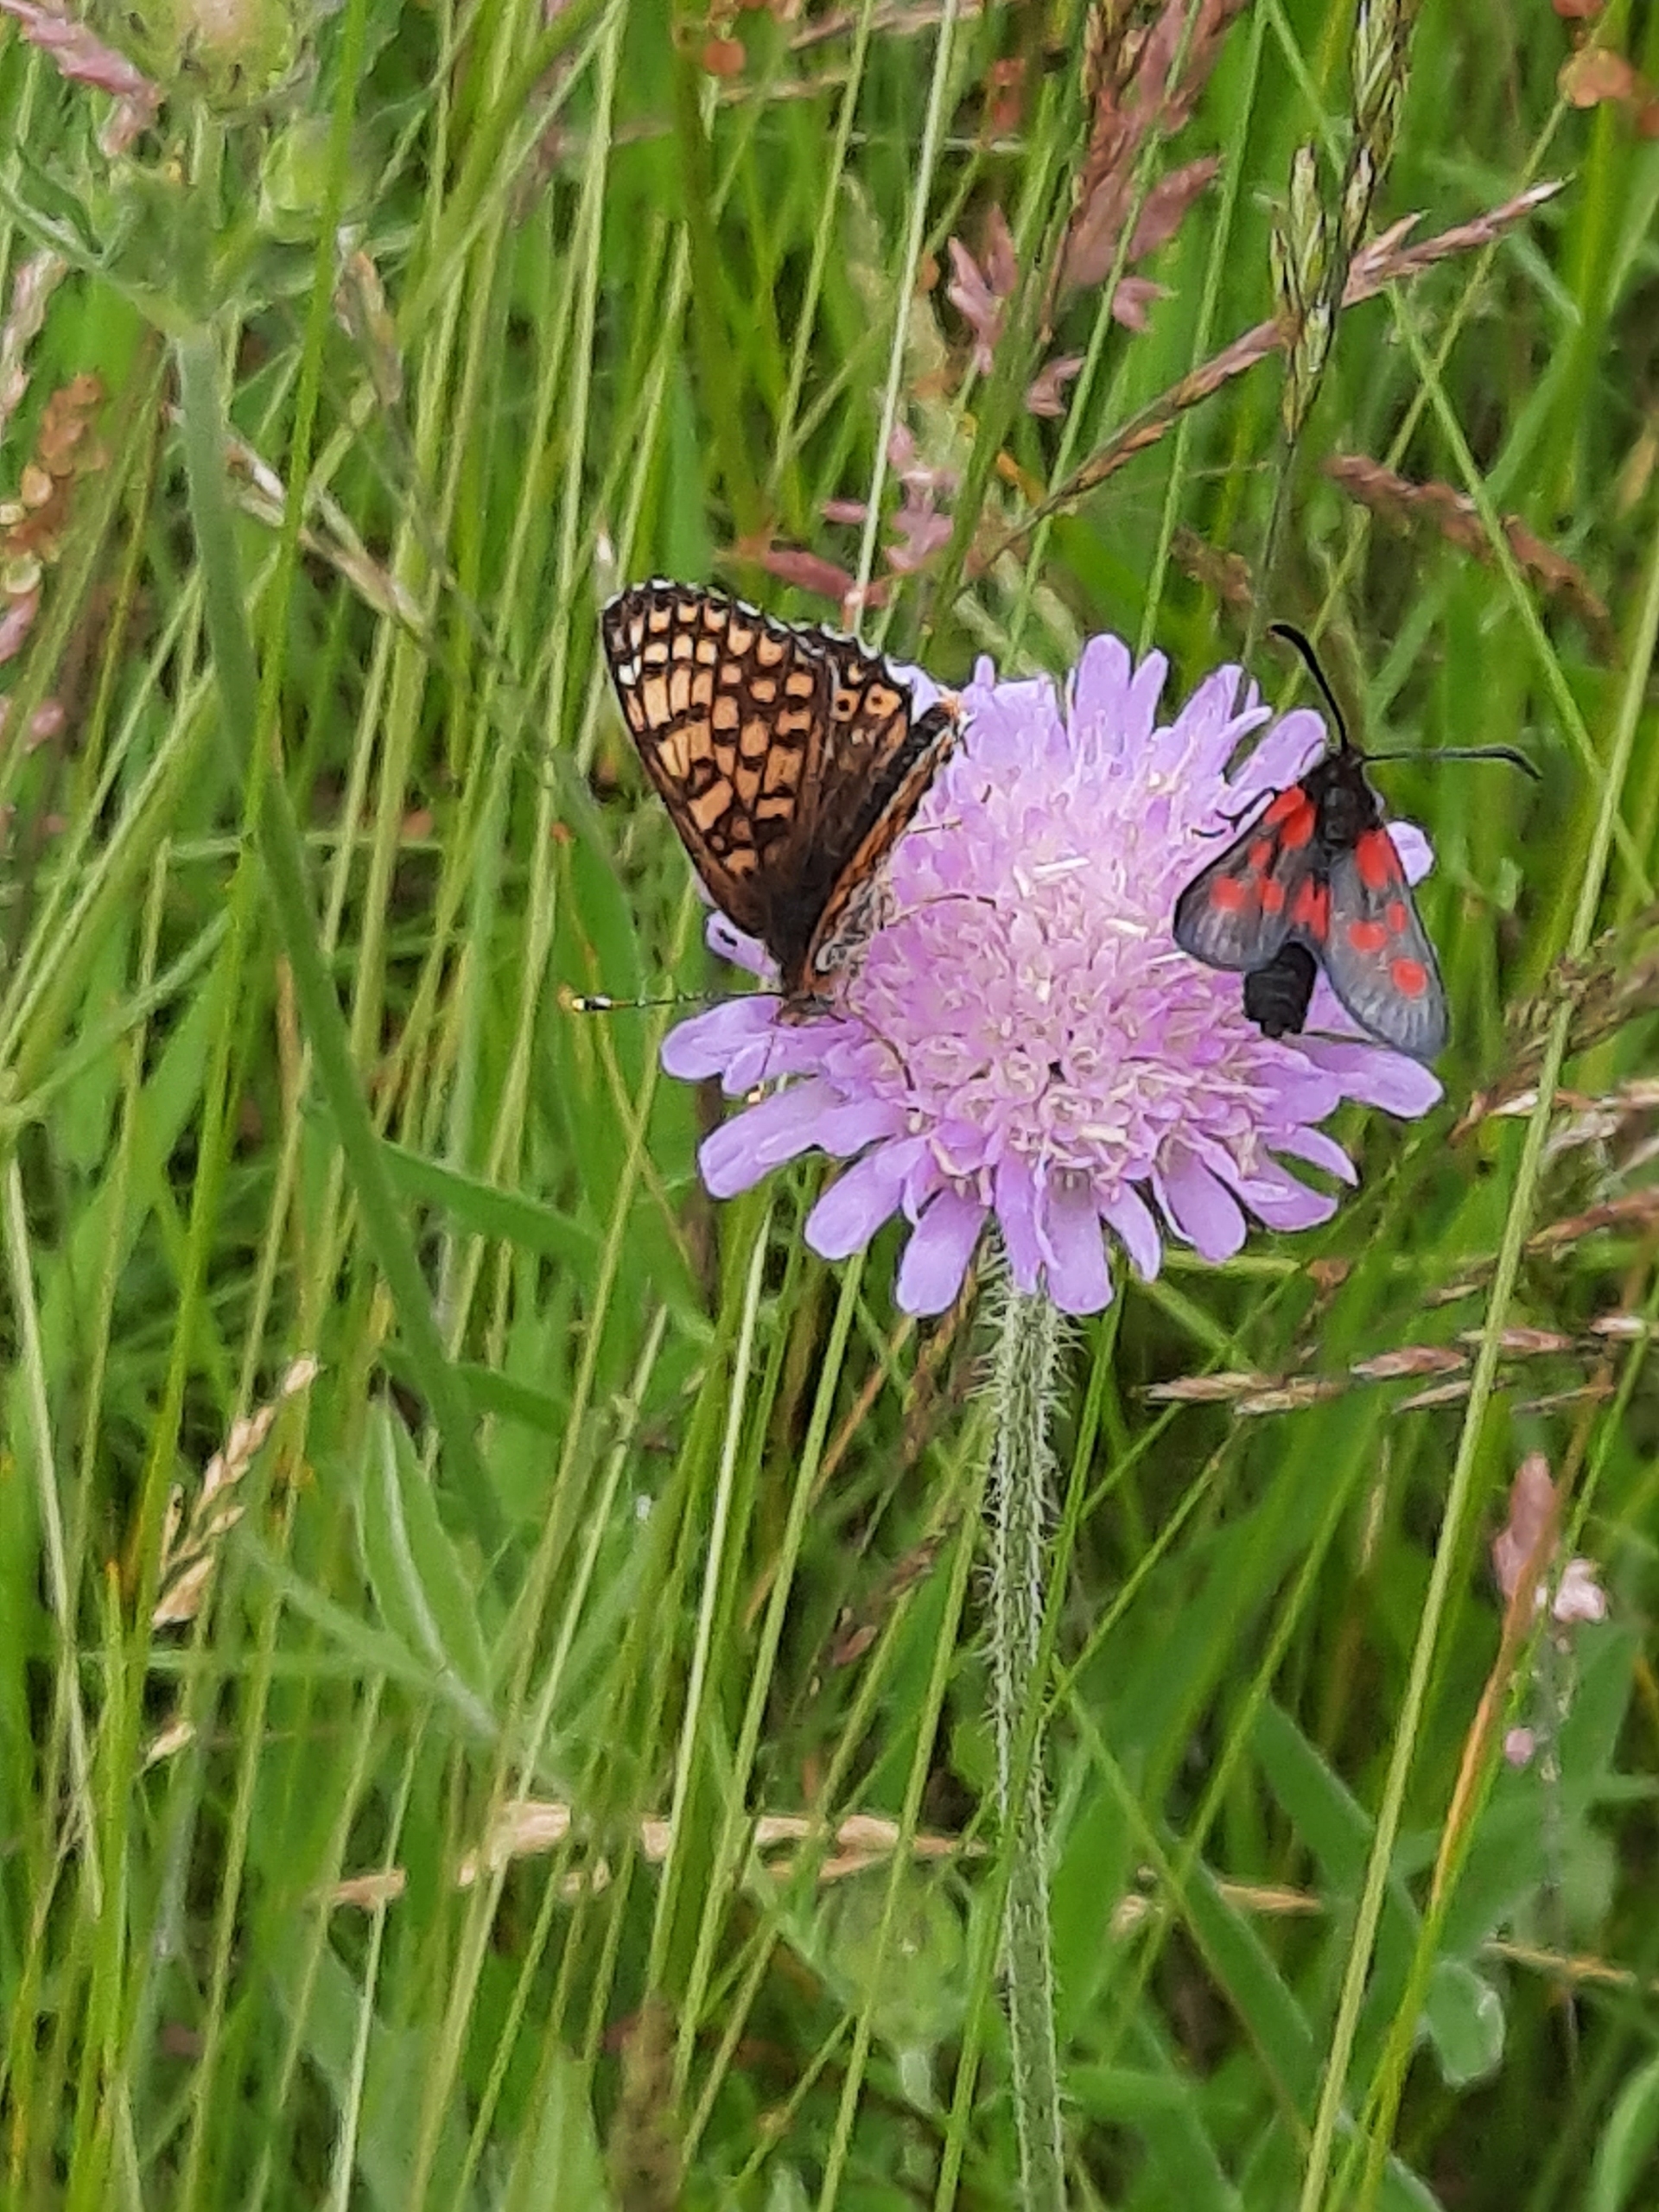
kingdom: Animalia
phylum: Arthropoda
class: Insecta
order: Lepidoptera
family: Nymphalidae
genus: Melitaea
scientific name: Melitaea cinxia
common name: Okkergul pletvinge
